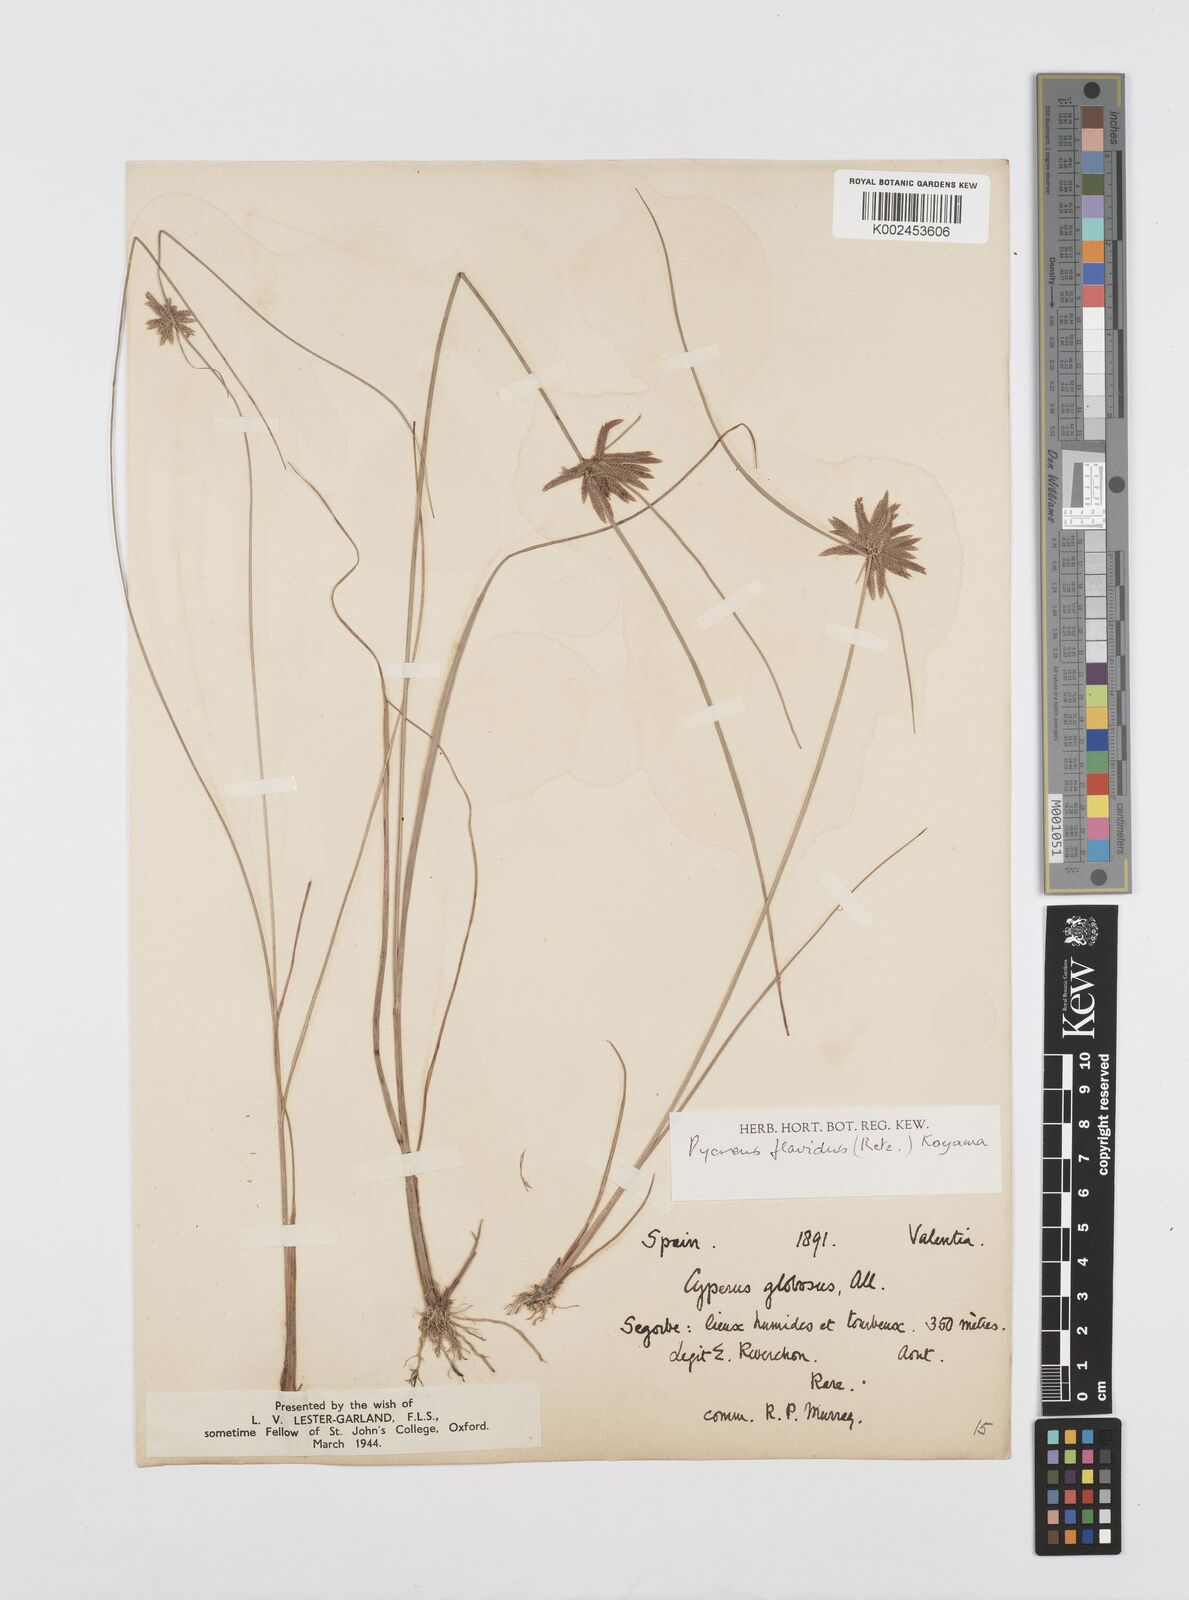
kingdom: Plantae
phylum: Tracheophyta
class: Liliopsida
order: Poales
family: Cyperaceae
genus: Cyperus
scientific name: Cyperus flavidus
